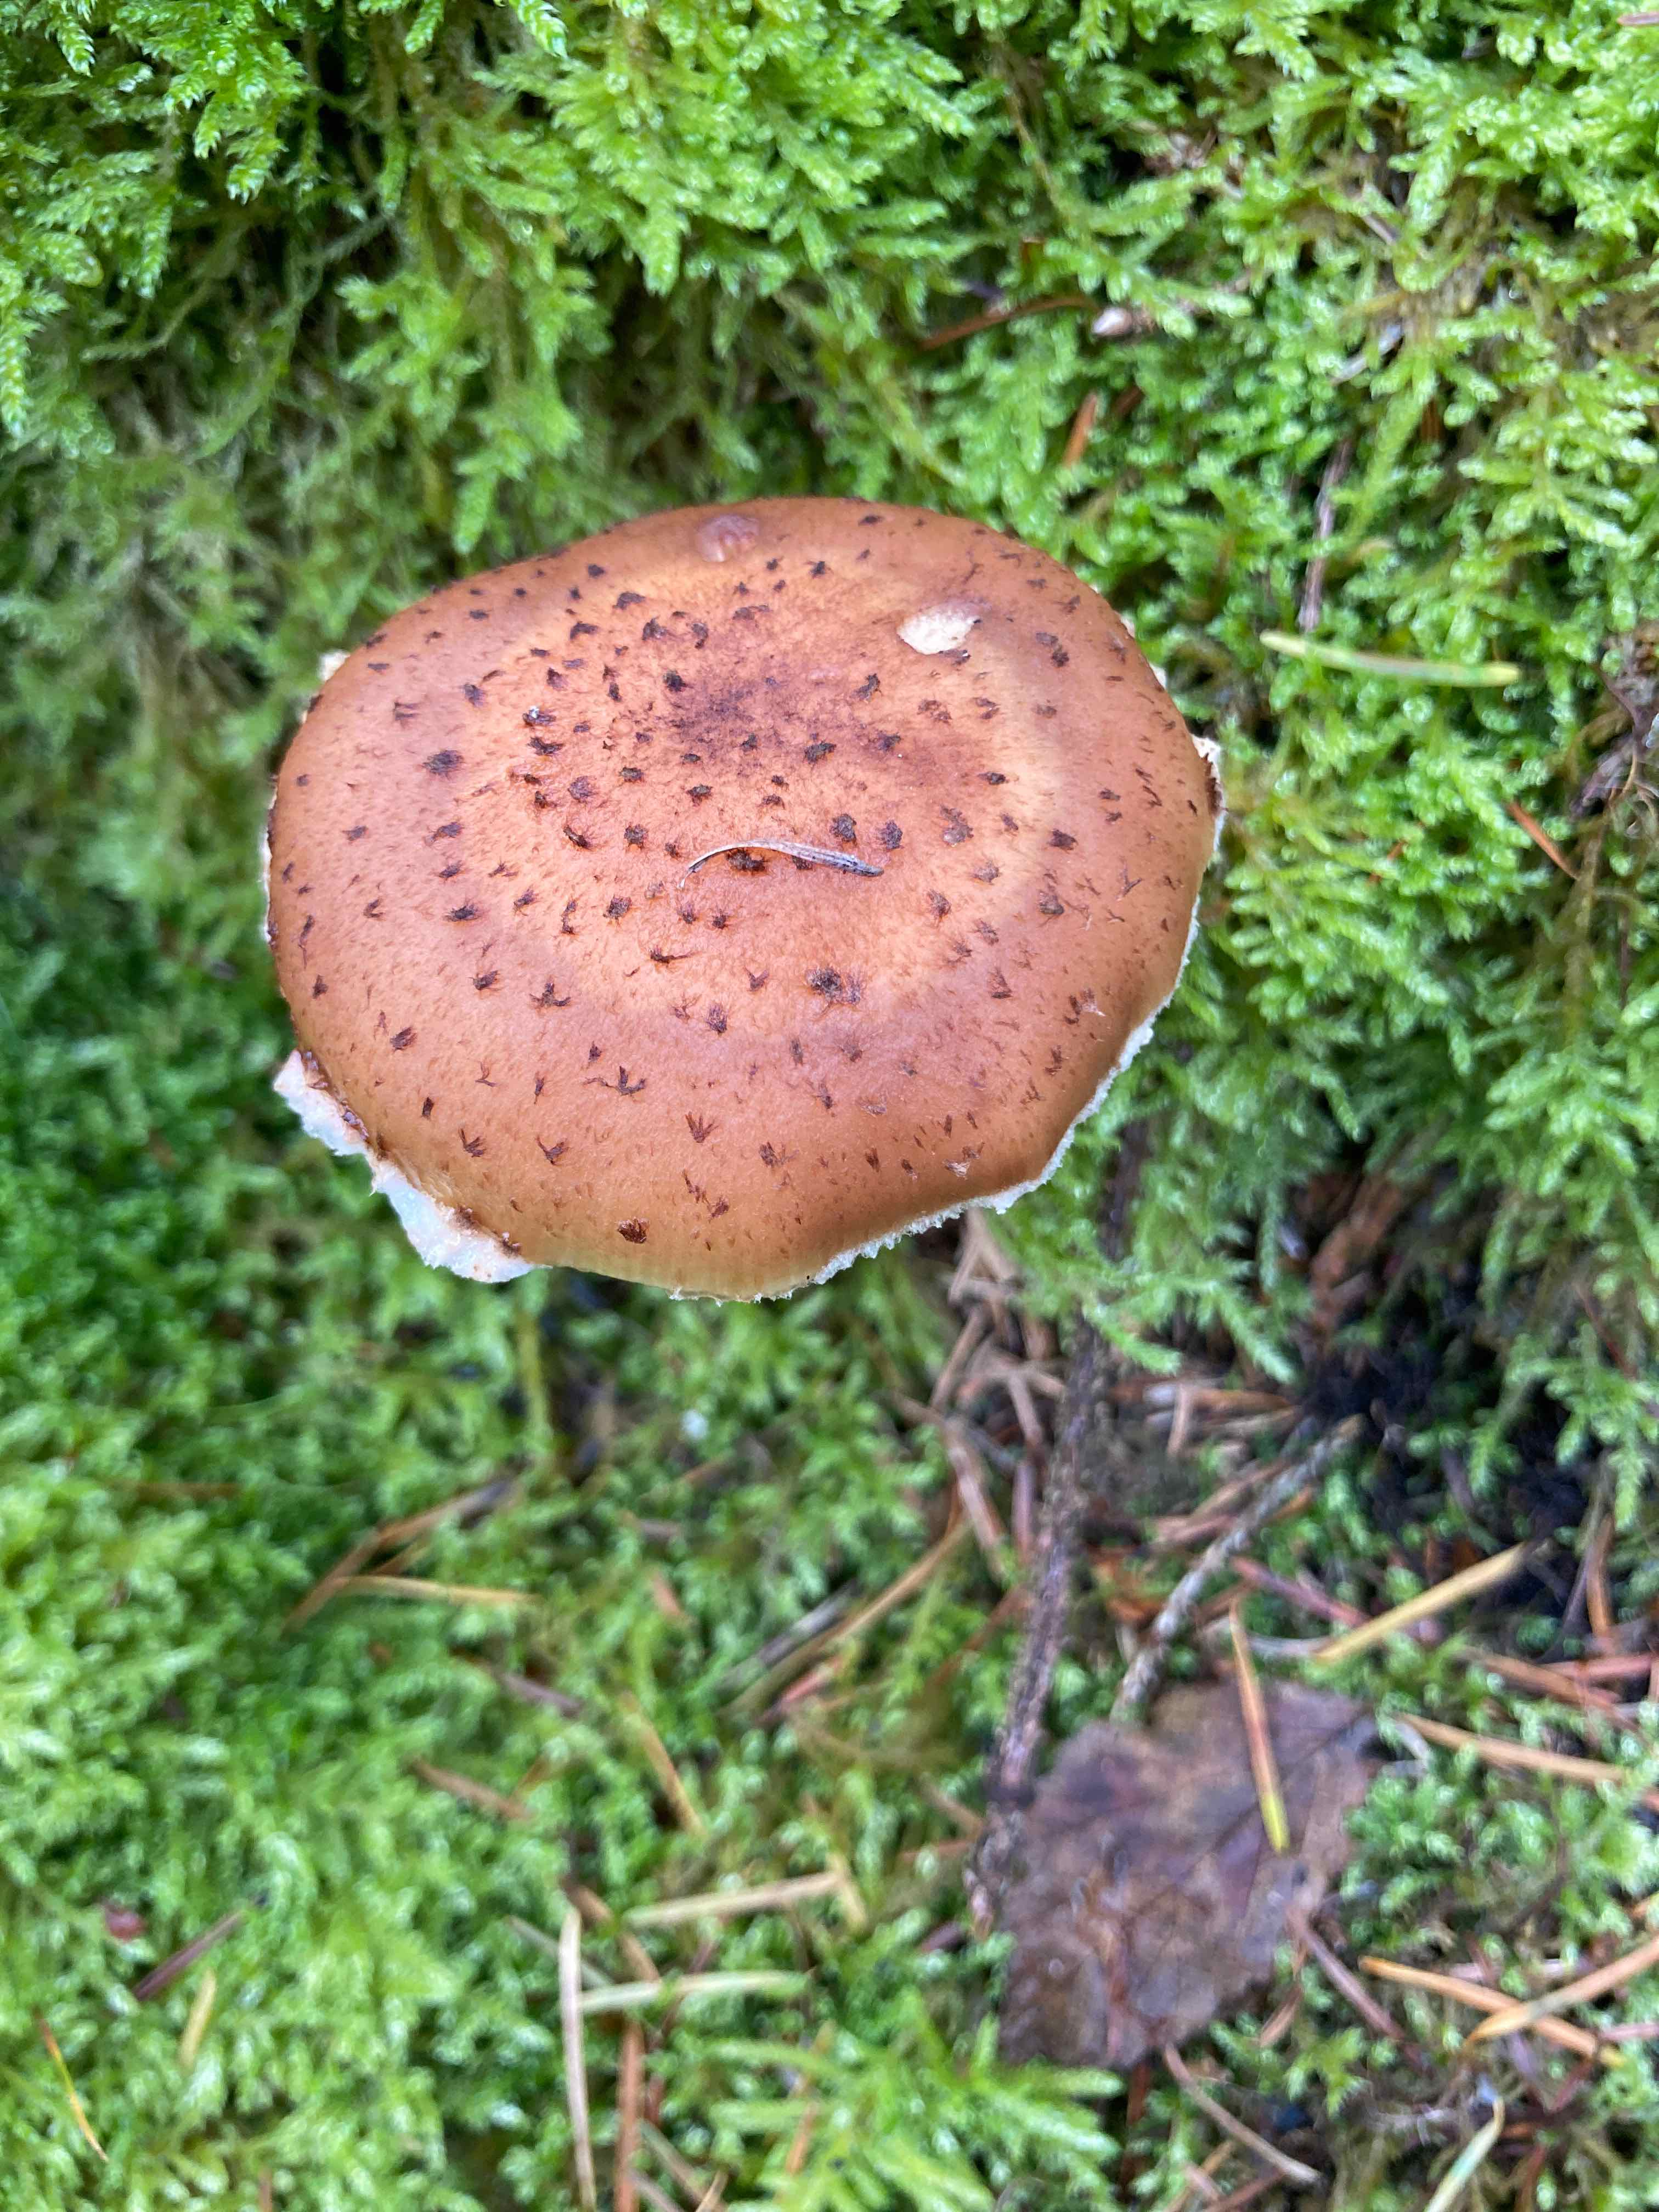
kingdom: Fungi
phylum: Basidiomycota
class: Agaricomycetes
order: Agaricales
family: Physalacriaceae
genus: Armillaria
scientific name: Armillaria ostoyae
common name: mørk honningsvamp
